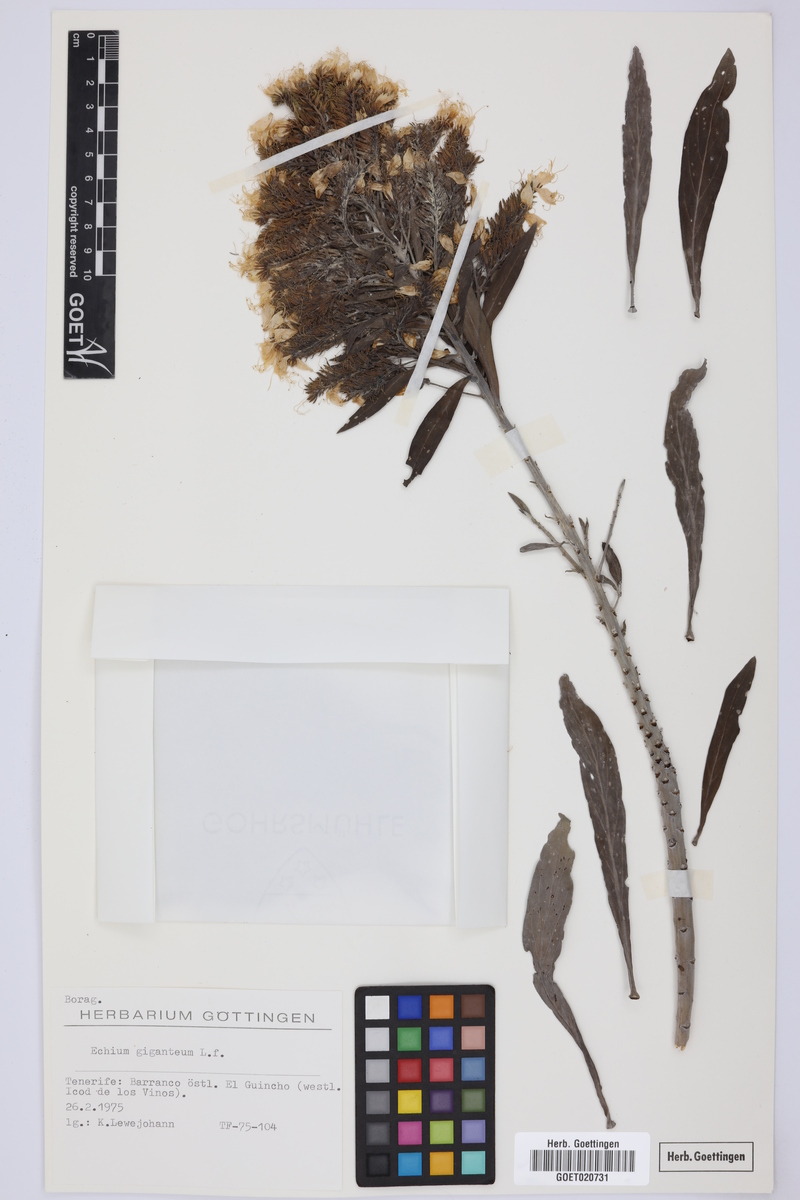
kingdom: Plantae
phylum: Tracheophyta
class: Magnoliopsida
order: Boraginales
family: Boraginaceae
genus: Echium
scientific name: Echium giganteum
